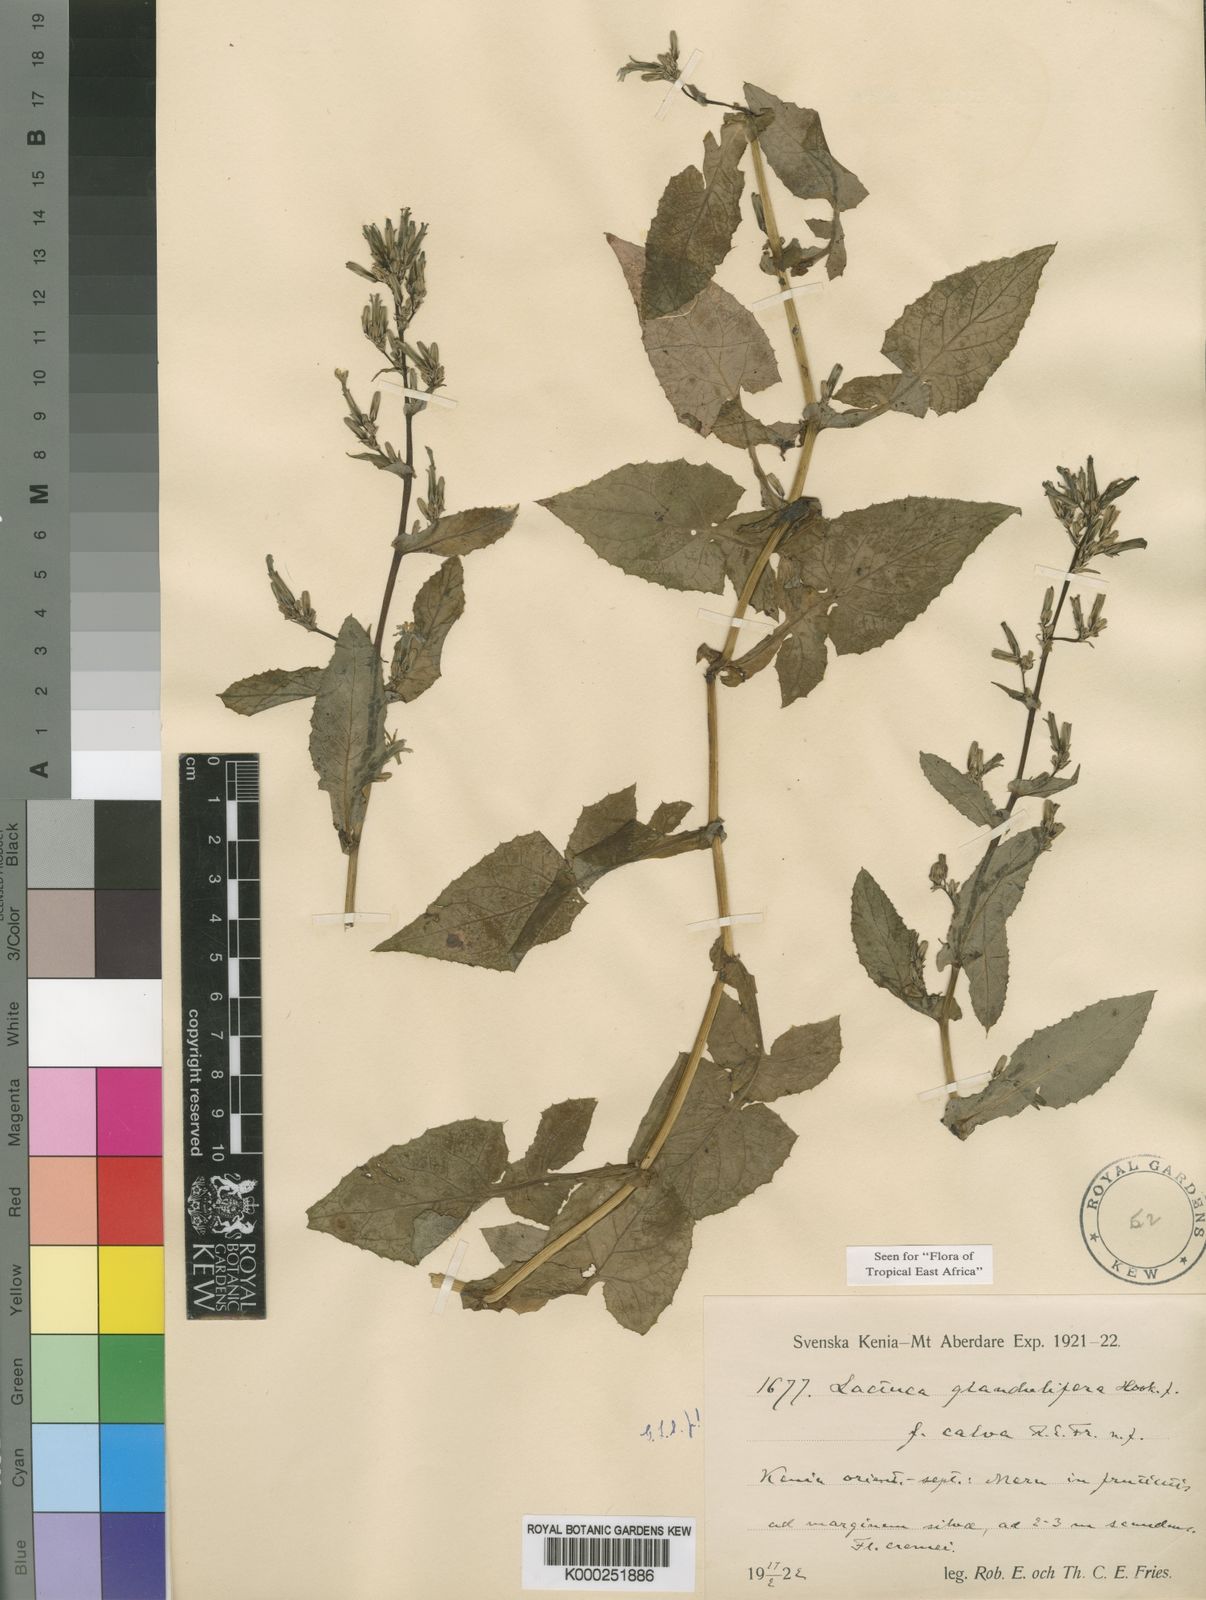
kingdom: Plantae
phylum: Tracheophyta
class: Magnoliopsida
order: Asterales
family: Asteraceae
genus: Lactuca
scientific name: Lactuca glandulifera
